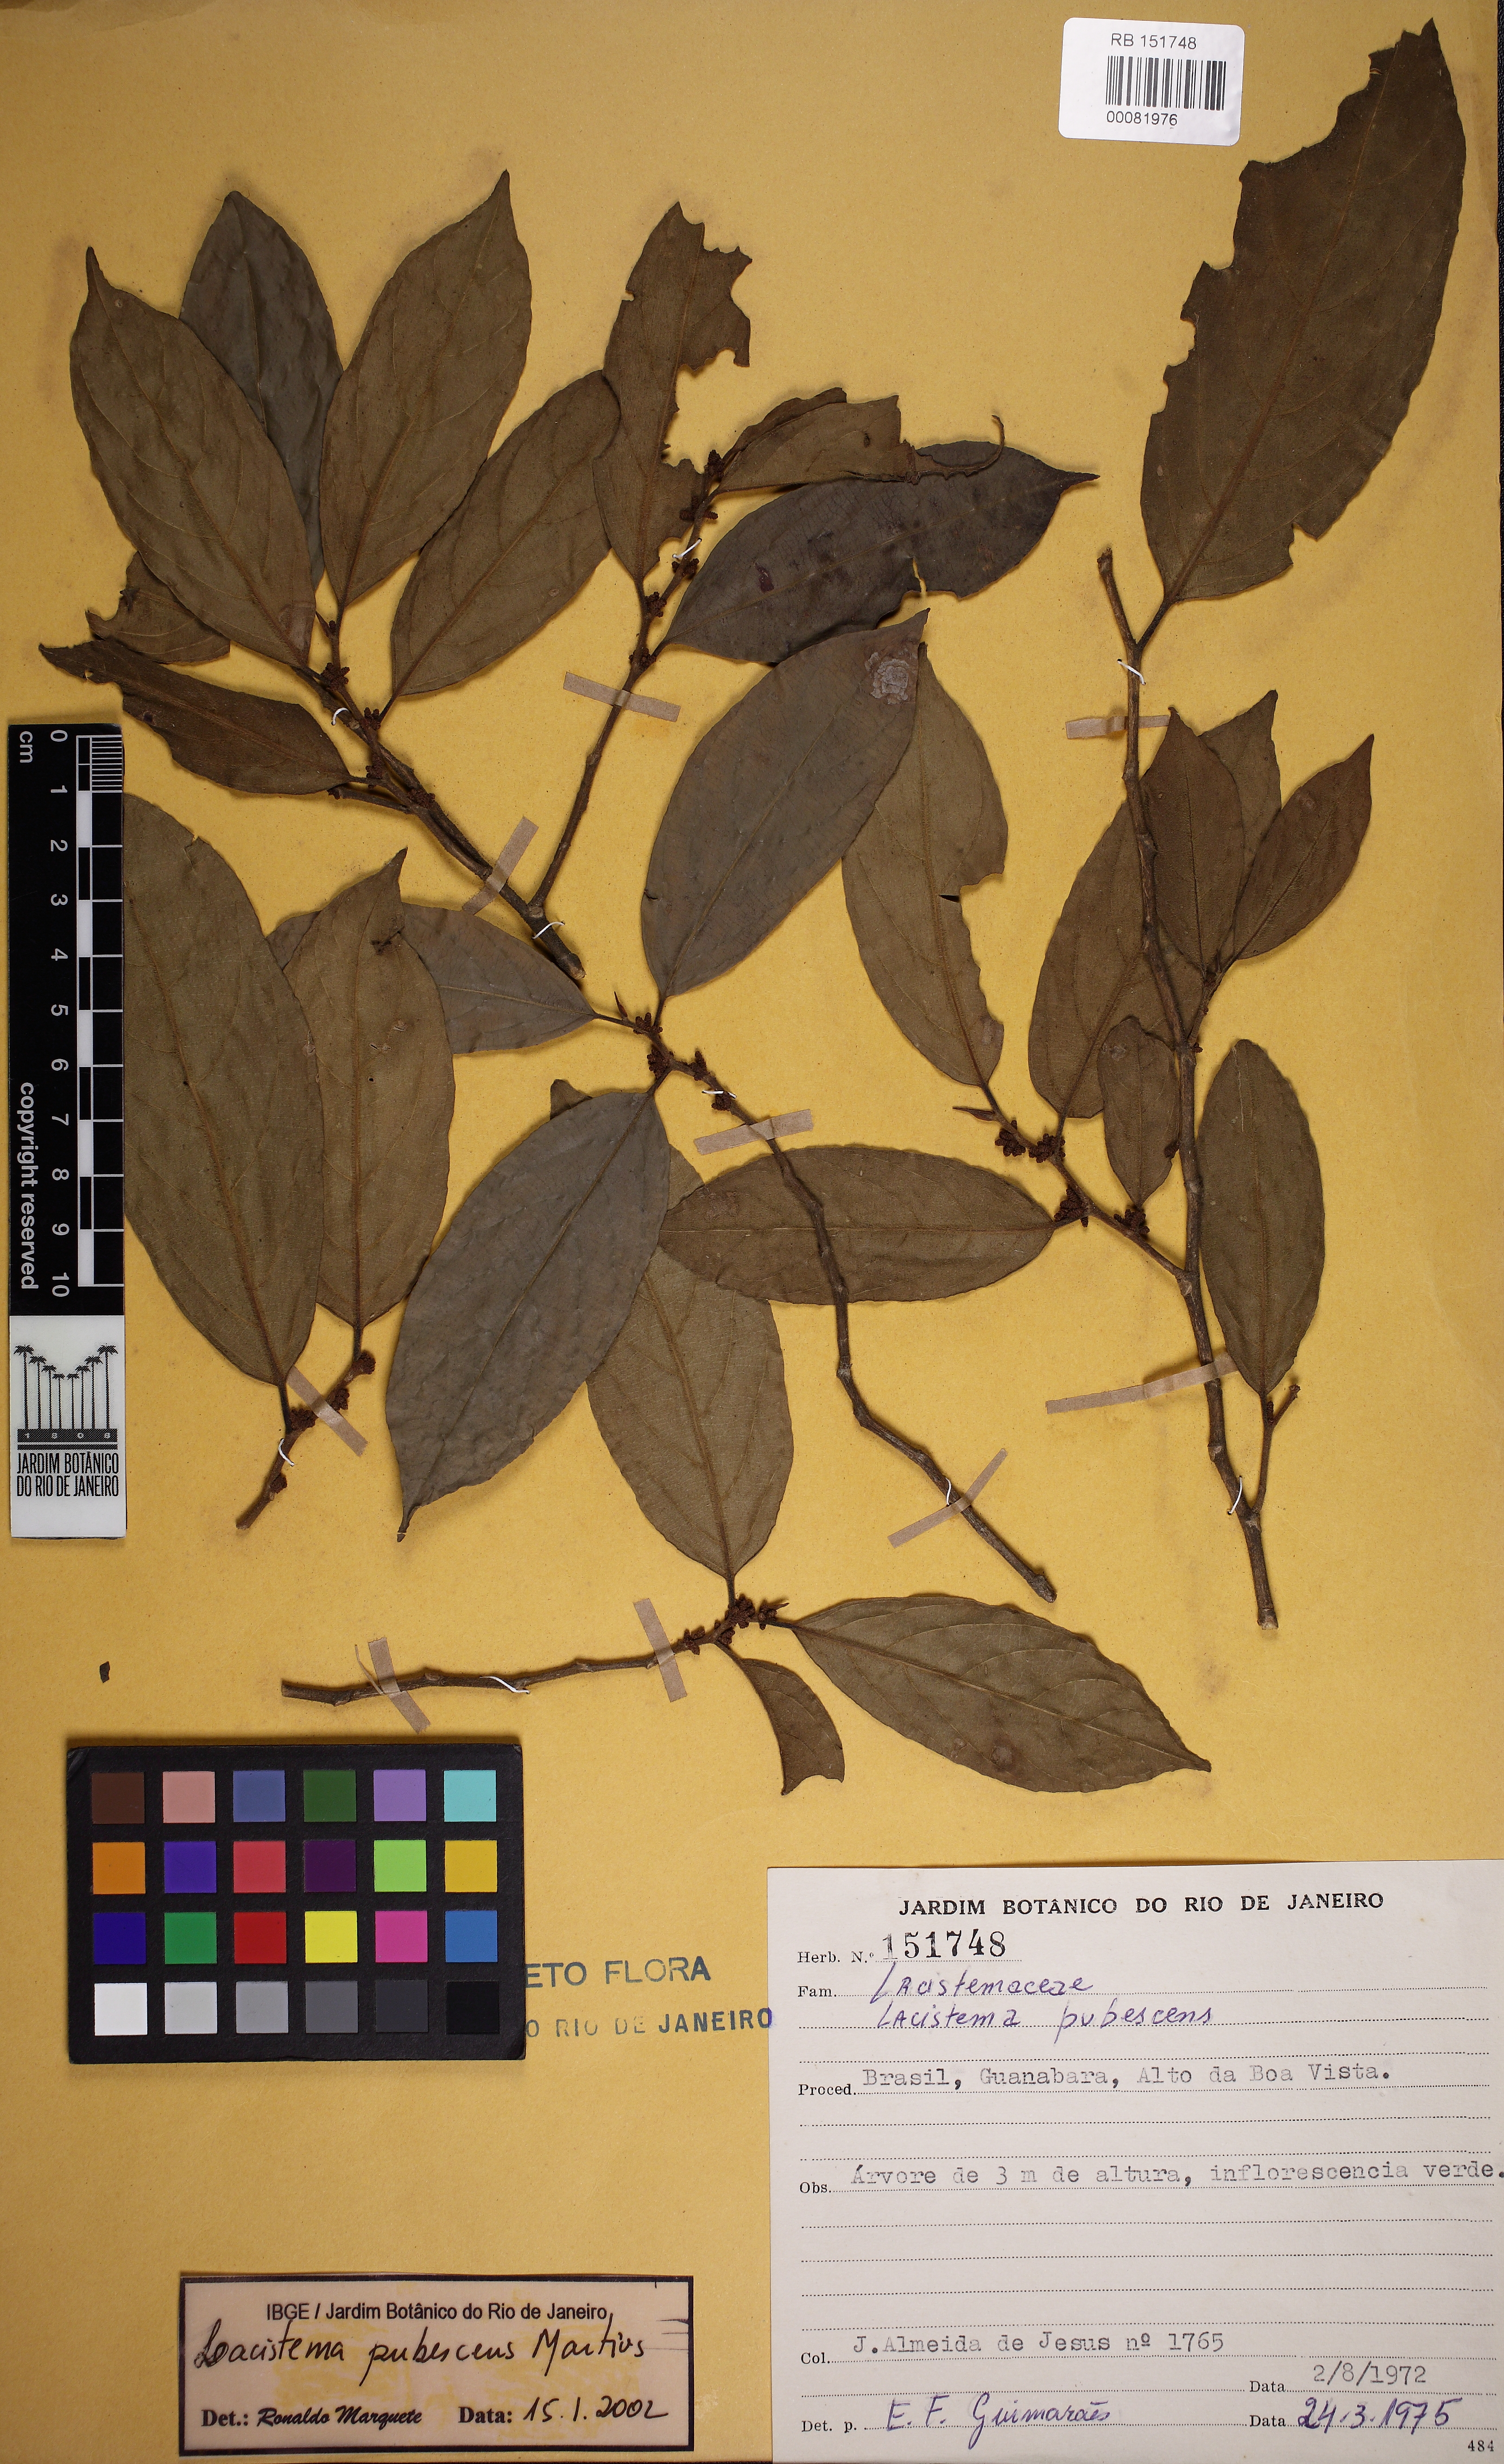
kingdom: Plantae
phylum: Tracheophyta
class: Magnoliopsida
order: Malpighiales
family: Lacistemataceae
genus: Lacistema
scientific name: Lacistema pubescens
